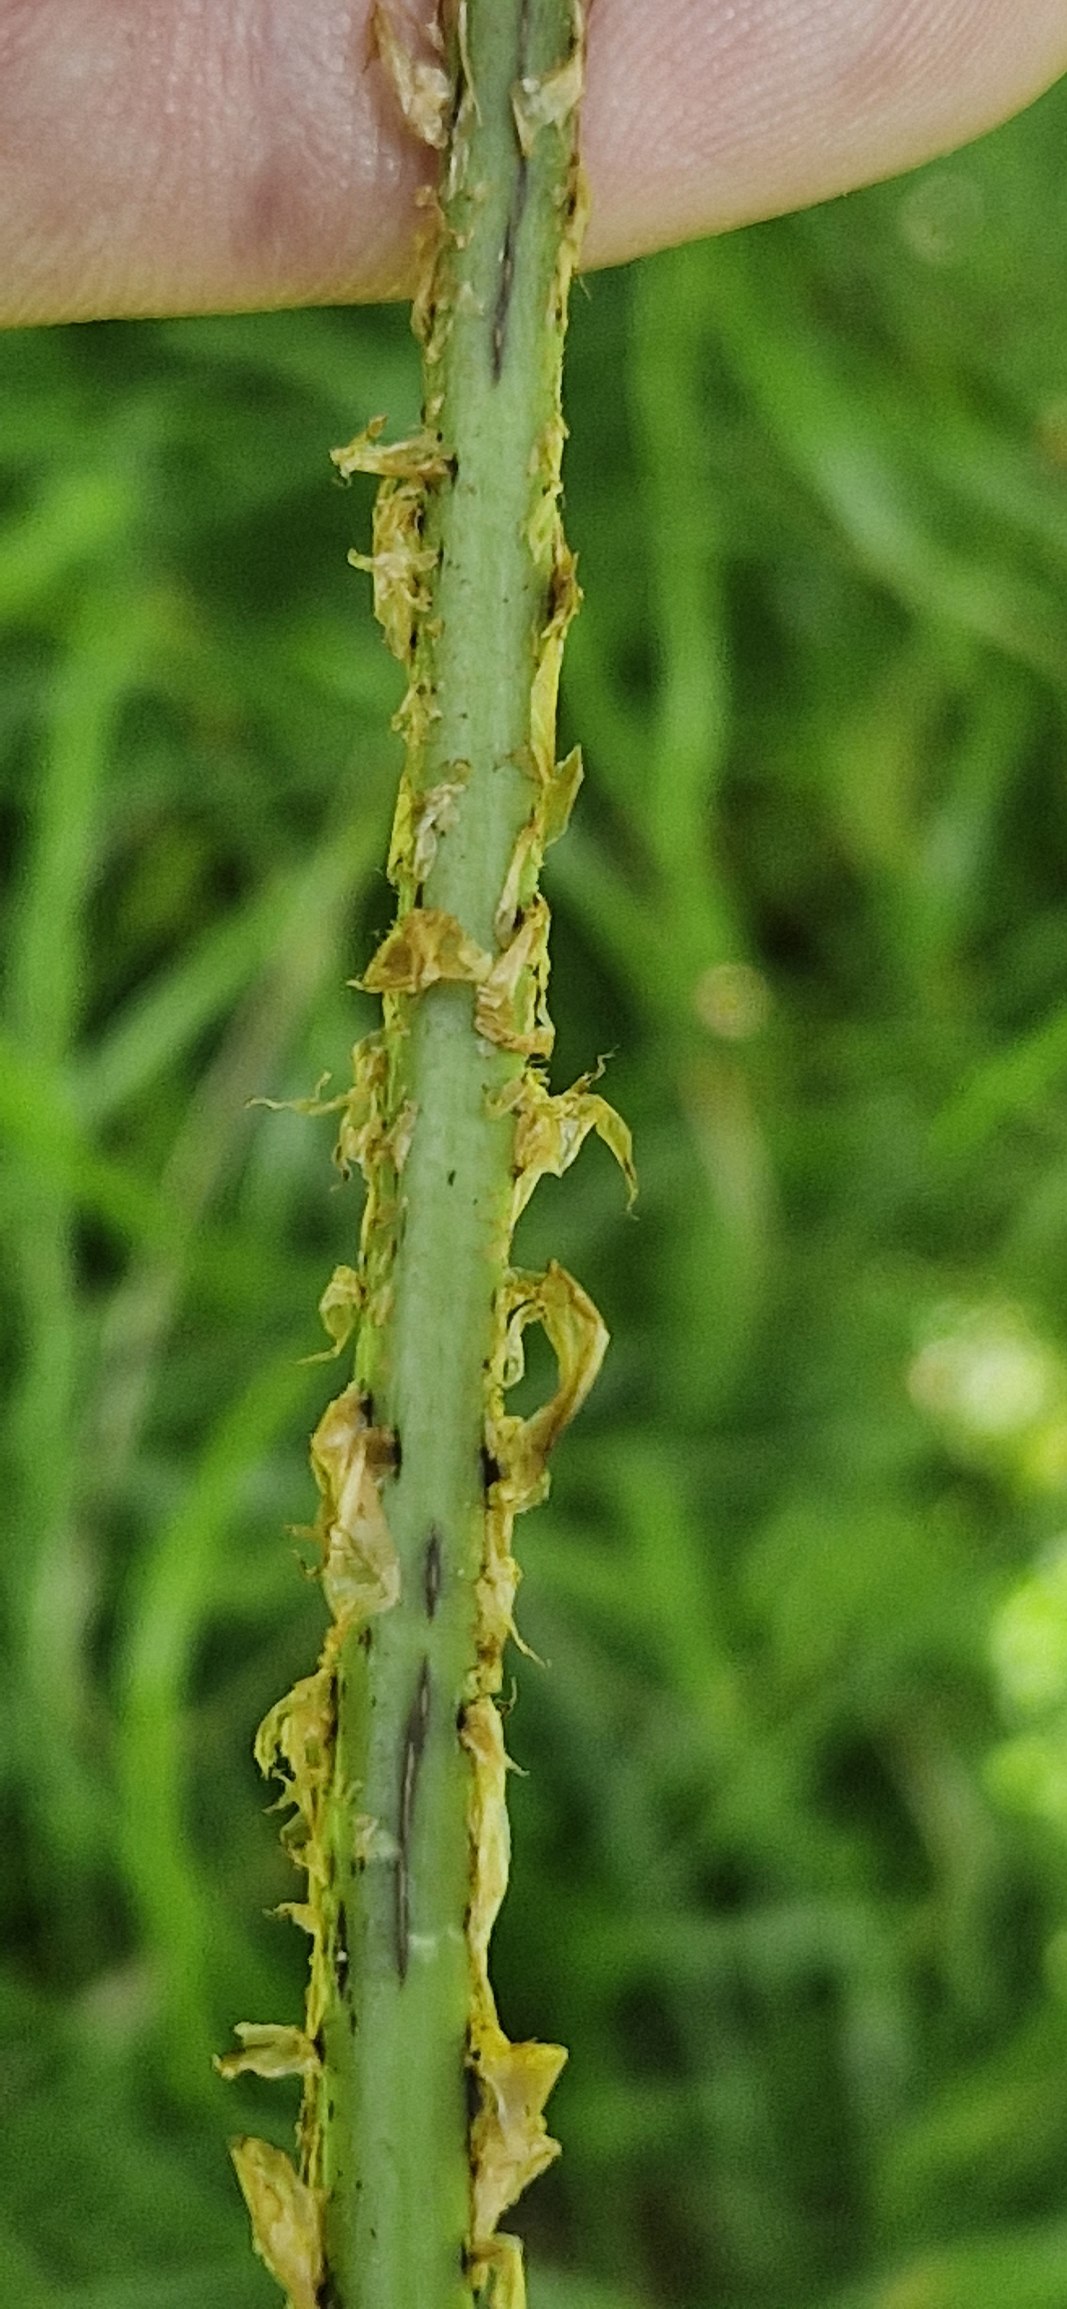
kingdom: Plantae
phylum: Tracheophyta
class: Polypodiopsida
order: Polypodiales
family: Dryopteridaceae
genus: Dryopteris
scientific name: Dryopteris carthusiana
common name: Smalbladet mangeløv
